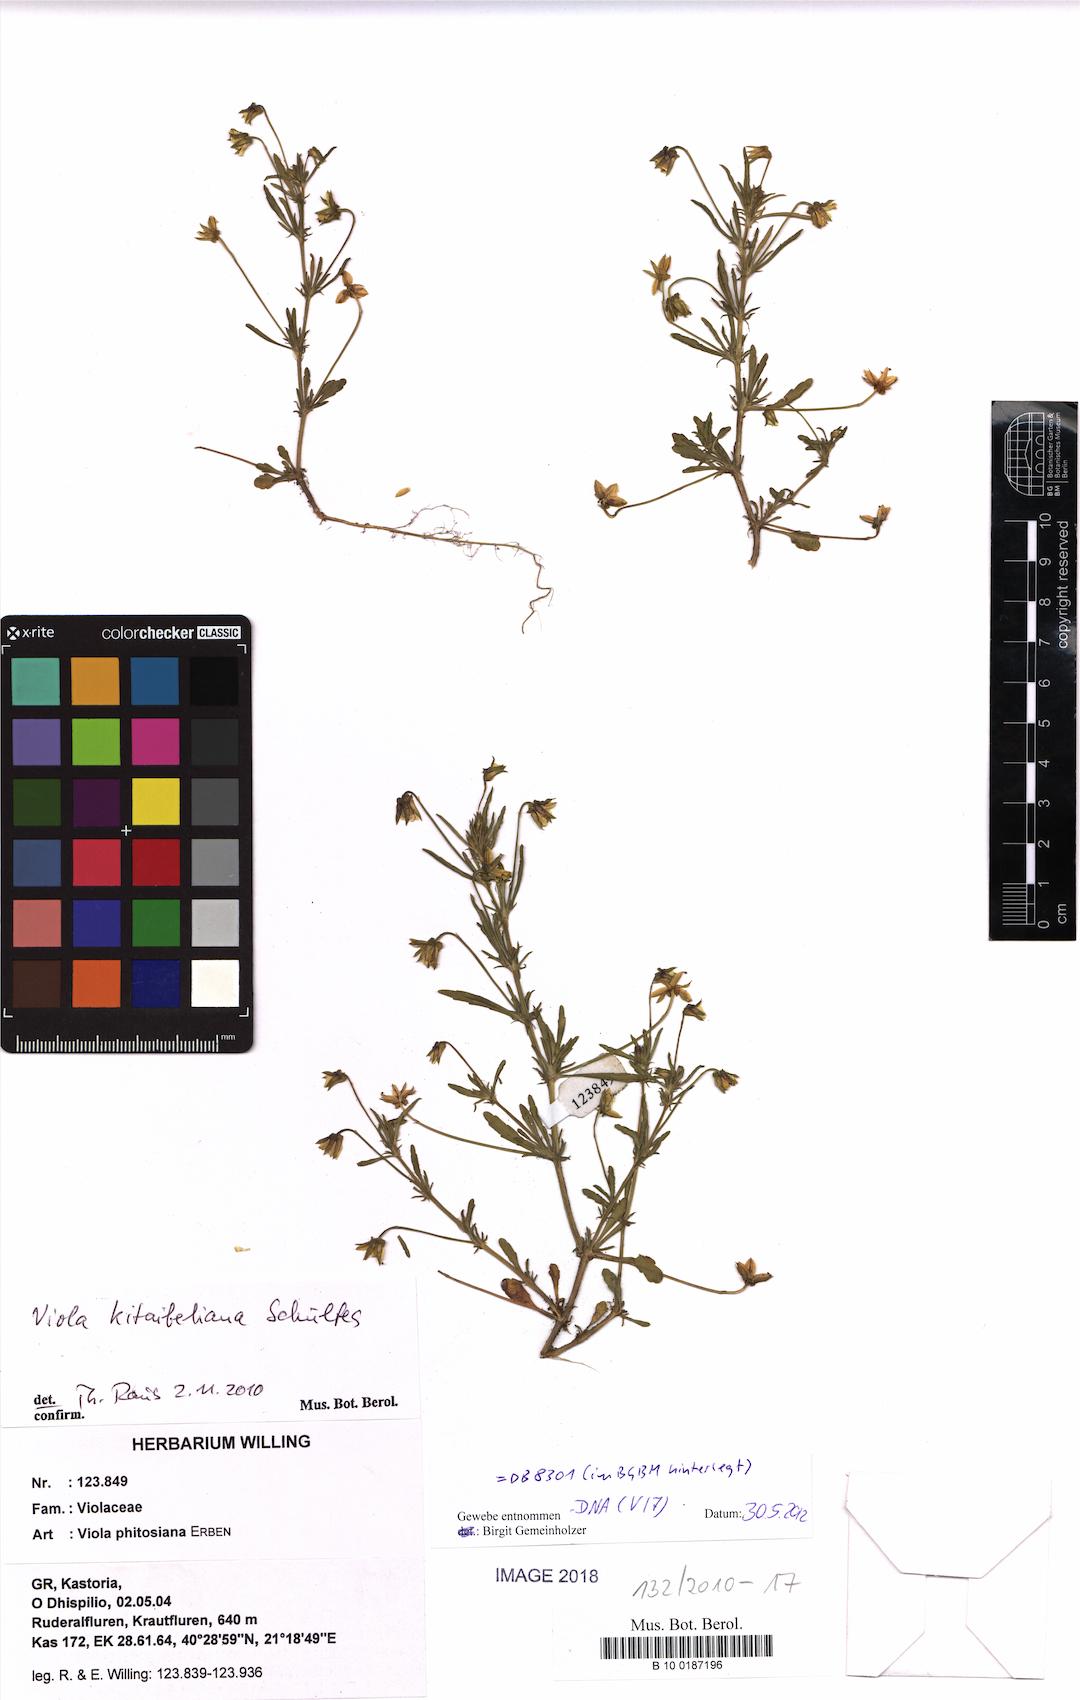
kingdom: Plantae
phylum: Tracheophyta
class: Magnoliopsida
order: Malpighiales
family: Violaceae
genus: Viola
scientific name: Viola kitaibeliana
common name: Dwarf pansy
